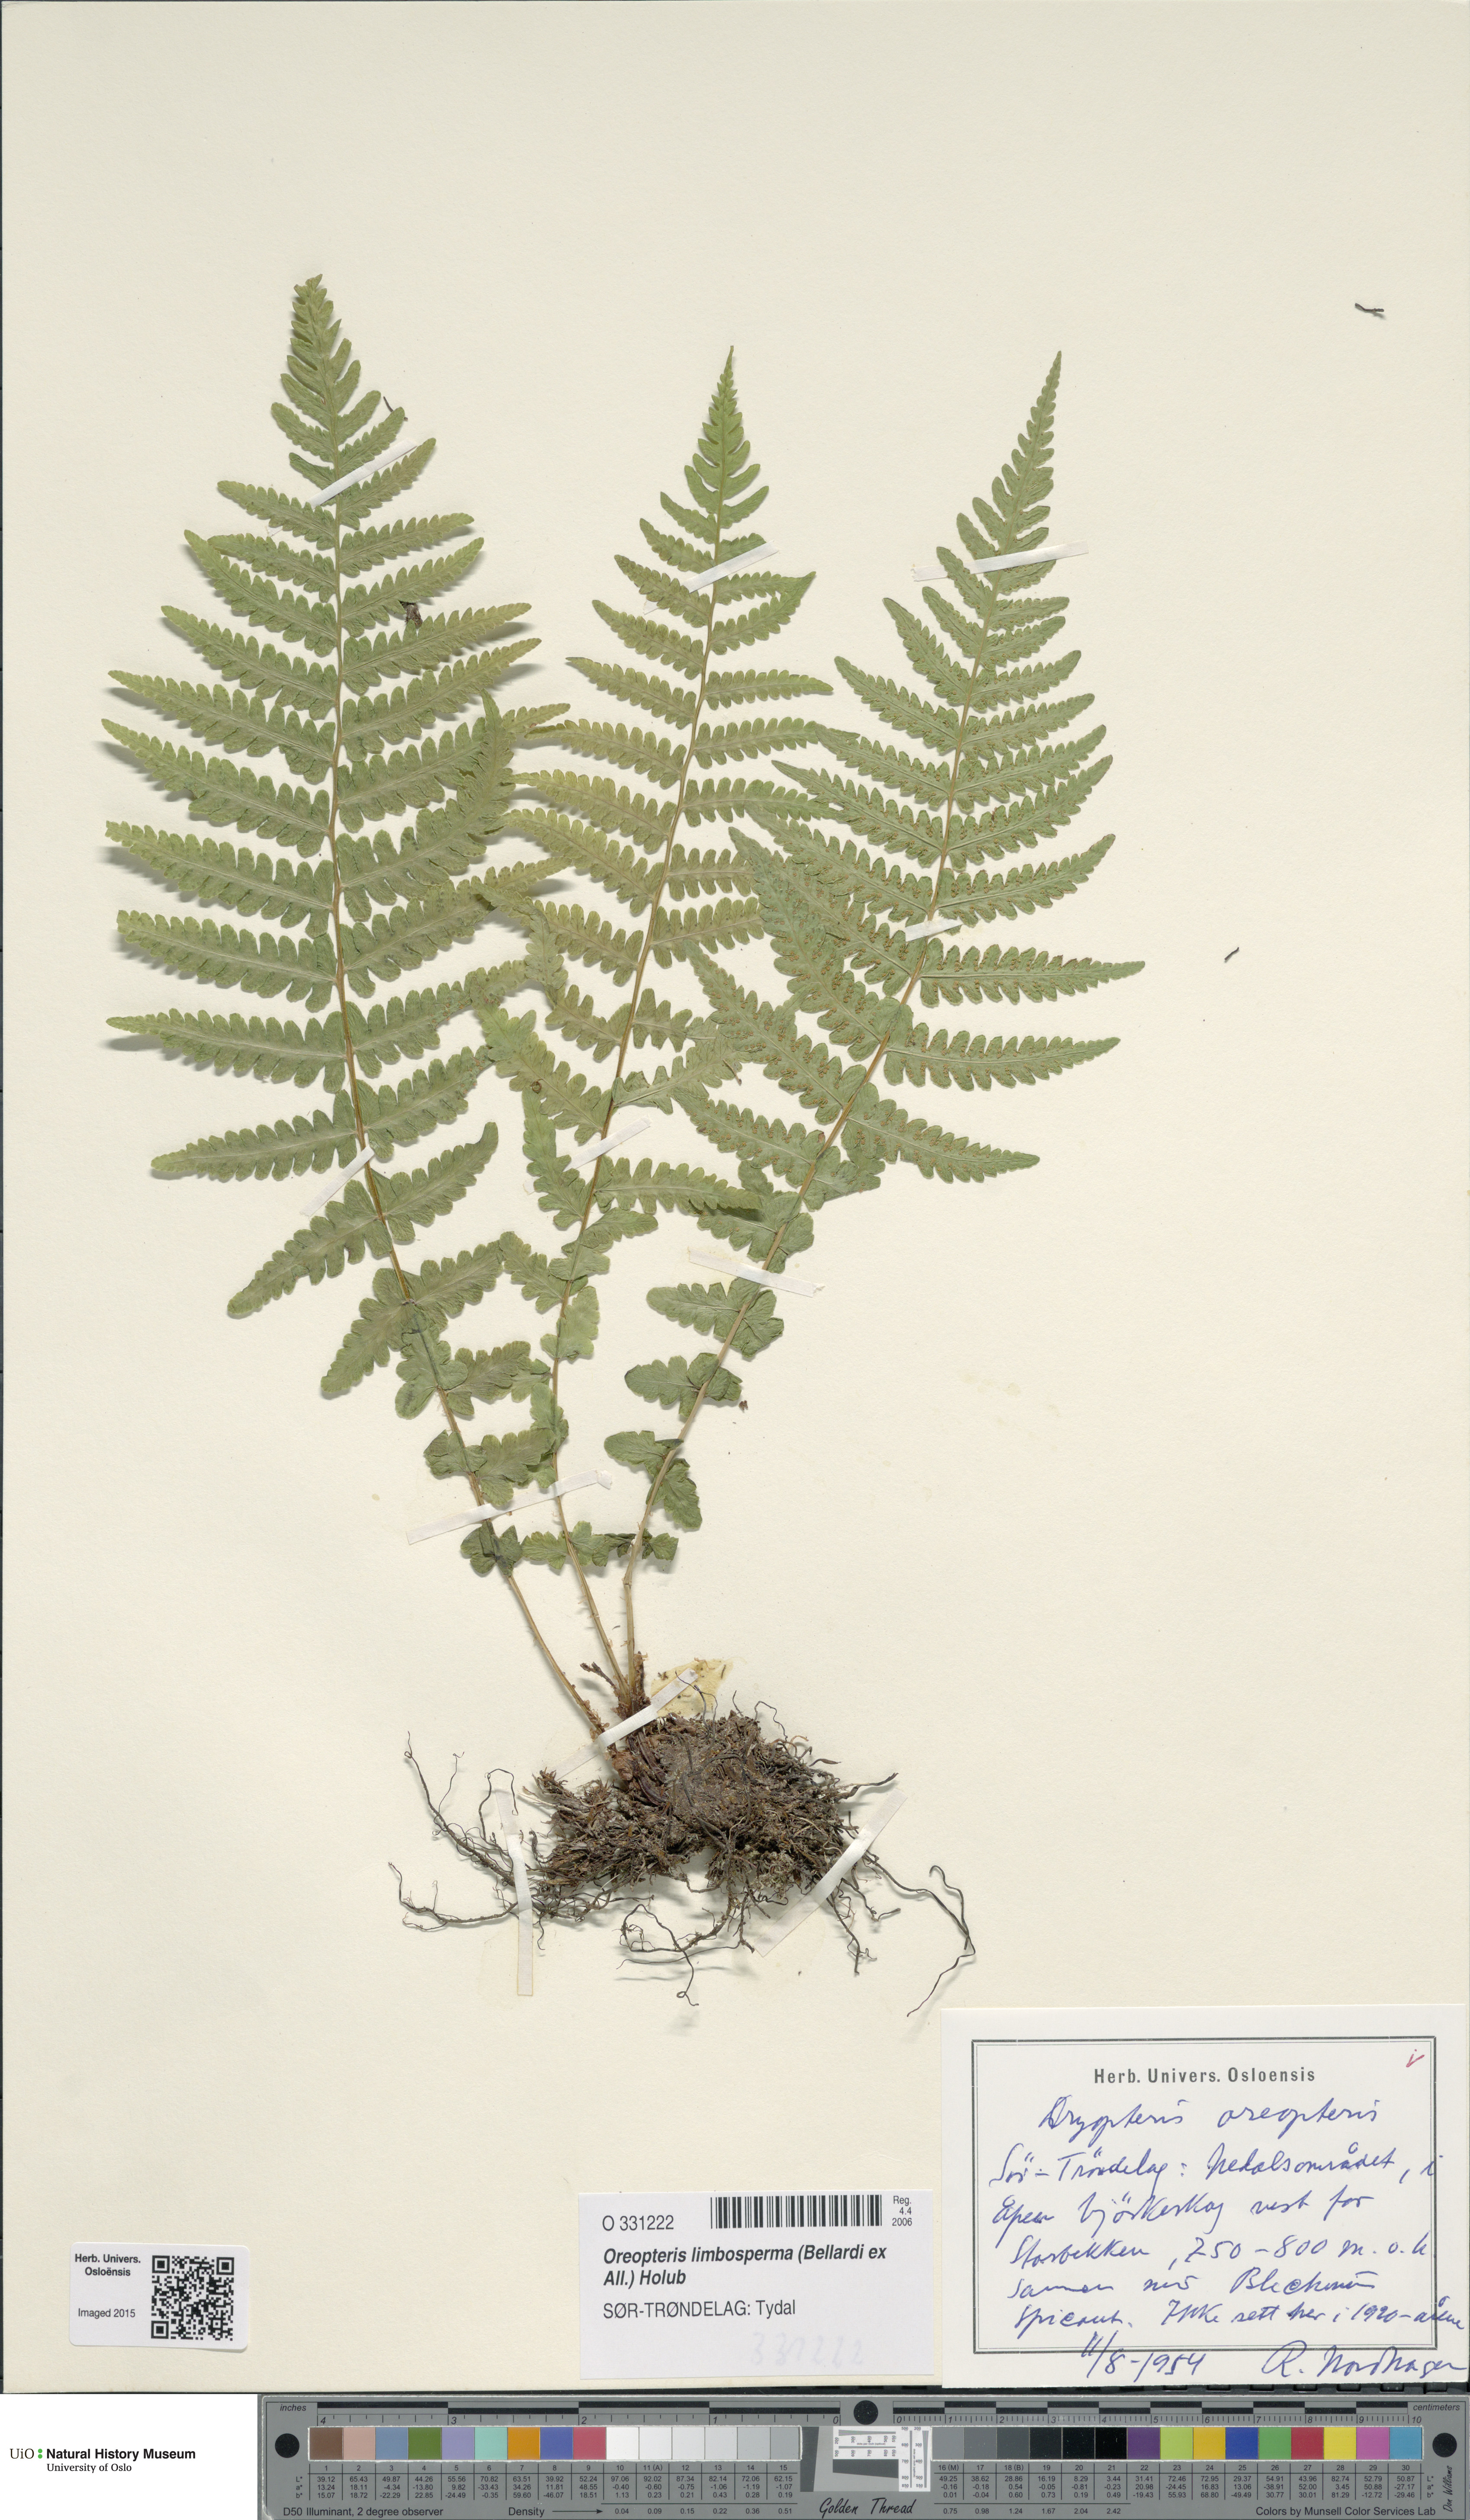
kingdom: Plantae
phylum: Tracheophyta
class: Polypodiopsida
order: Polypodiales
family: Thelypteridaceae
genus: Oreopteris
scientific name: Oreopteris limbosperma
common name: Lemon-scented fern
